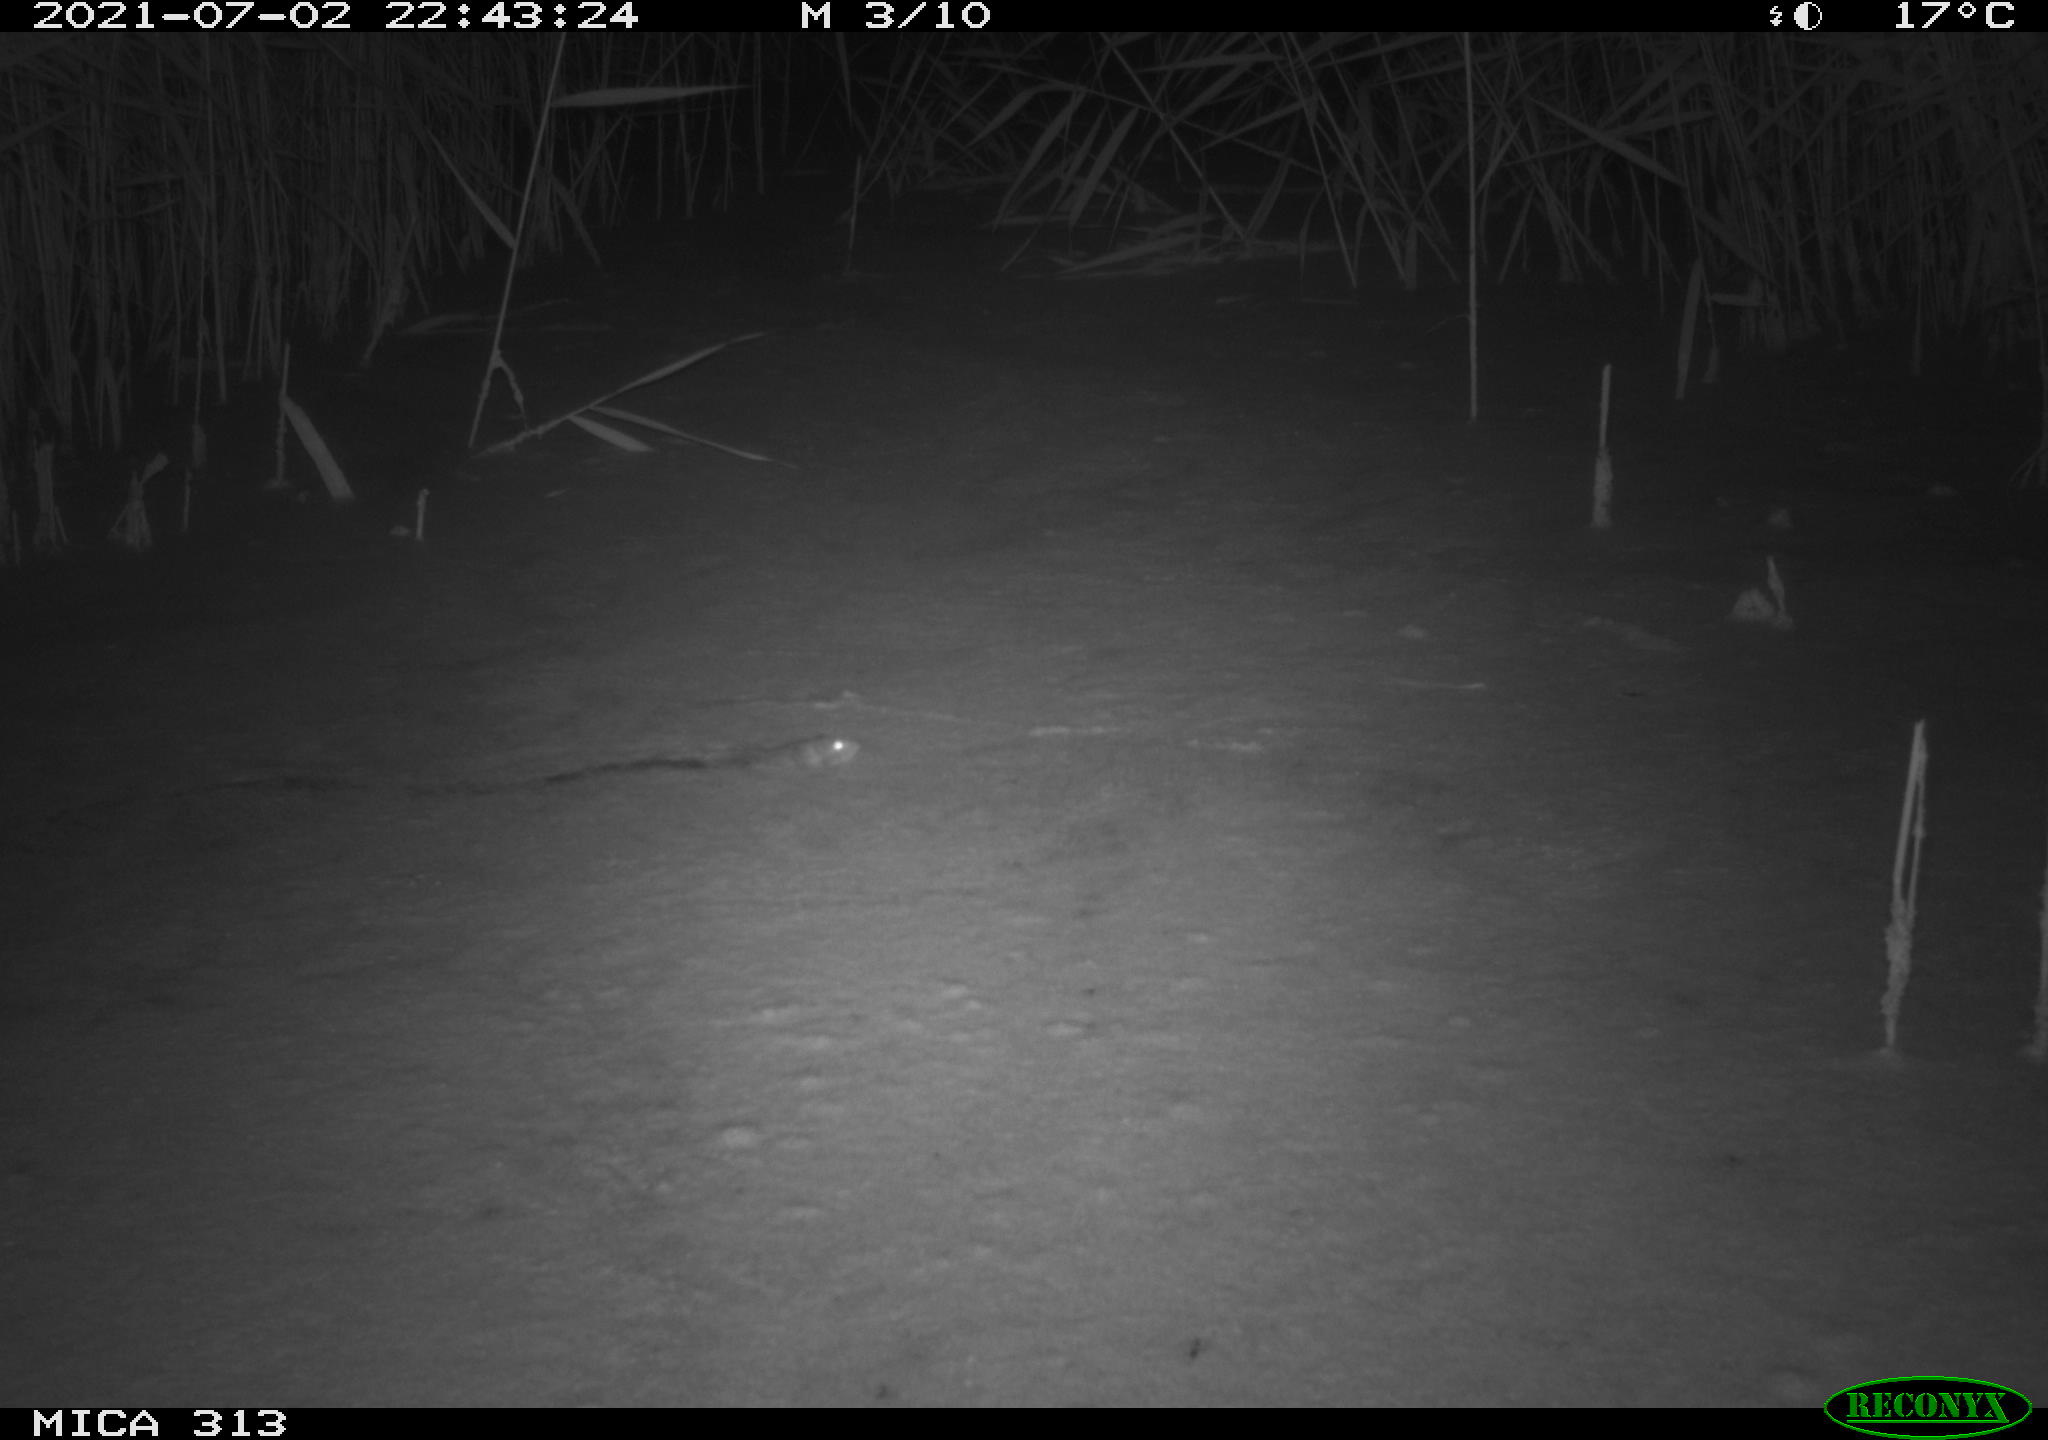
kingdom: Animalia
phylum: Chordata
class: Mammalia
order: Rodentia
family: Muridae
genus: Rattus
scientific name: Rattus norvegicus
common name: Brown rat
